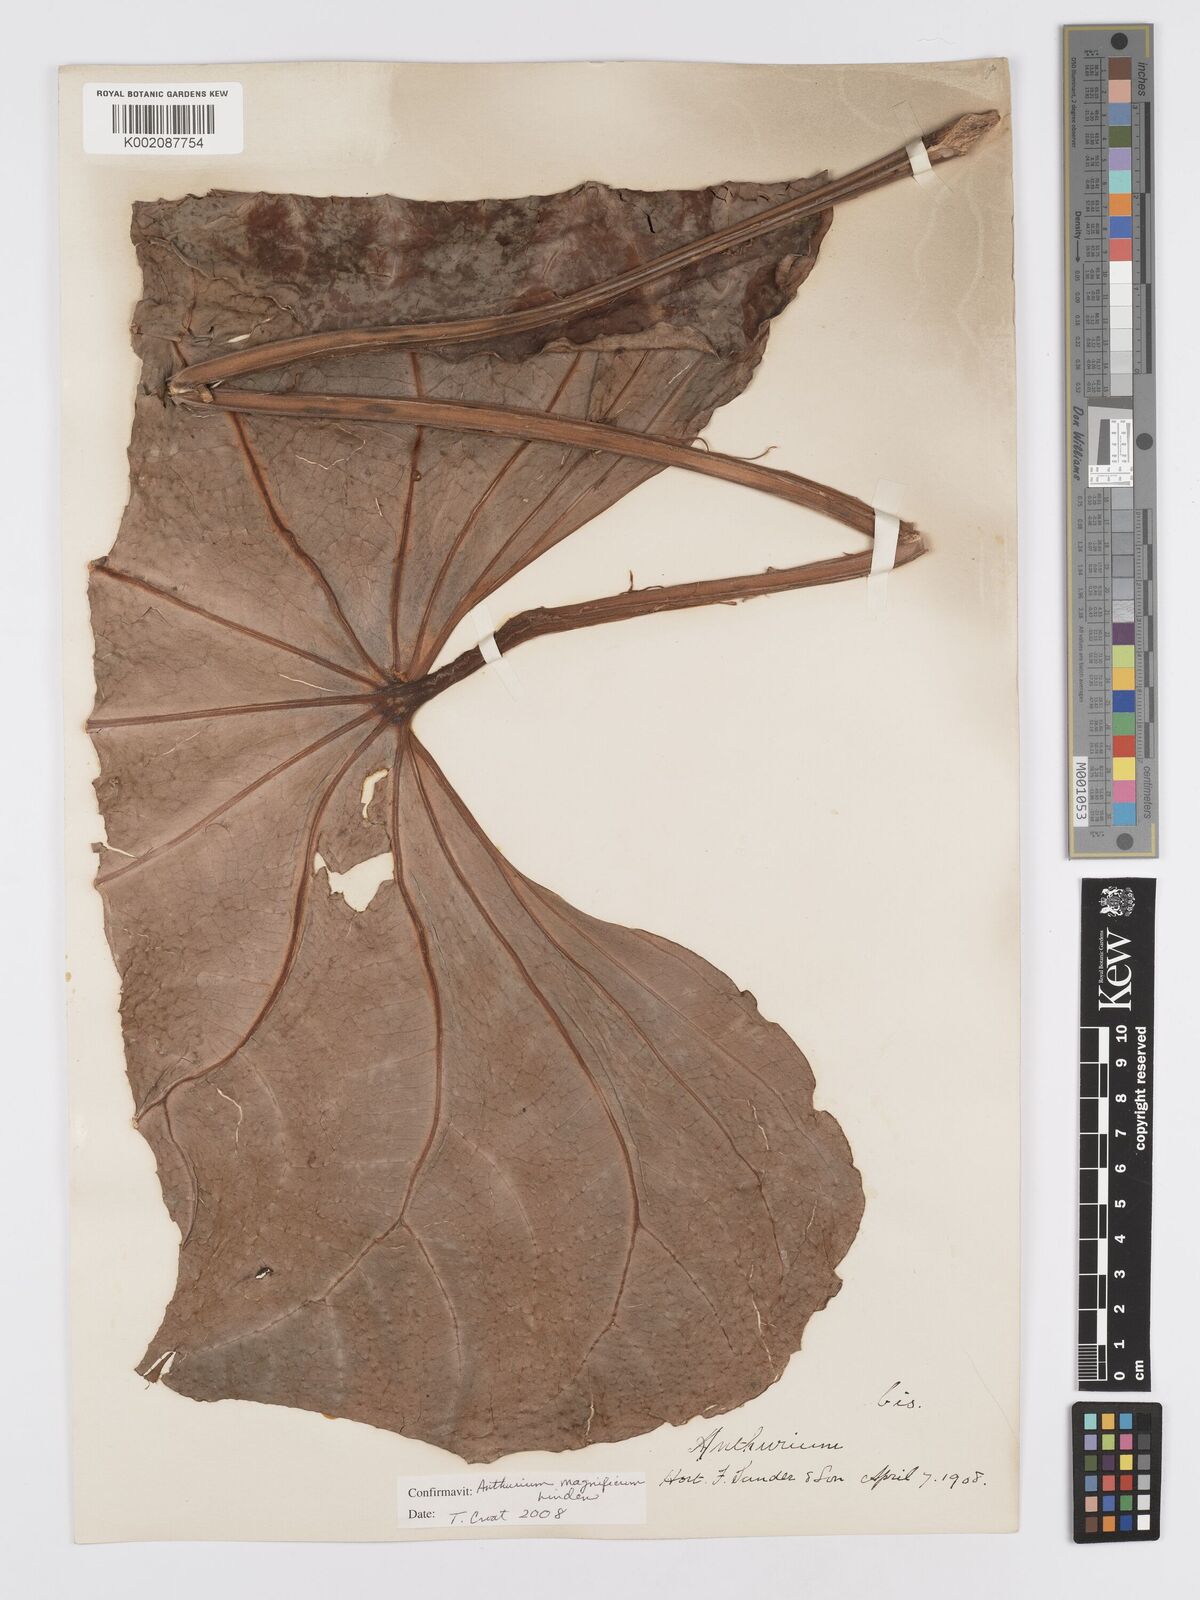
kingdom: Plantae
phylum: Tracheophyta
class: Liliopsida
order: Alismatales
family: Araceae
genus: Anthurium
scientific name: Anthurium magnificum
